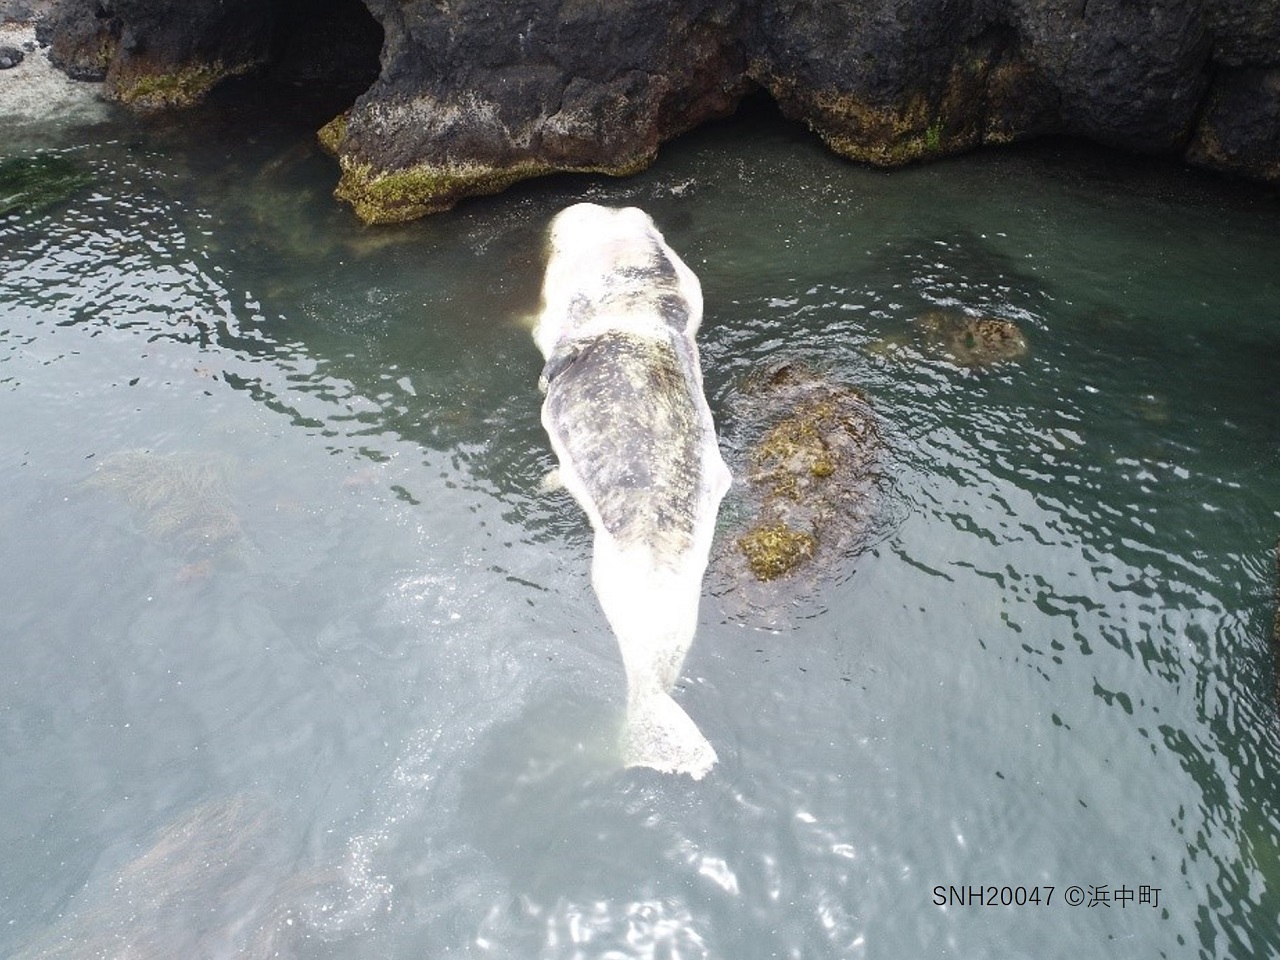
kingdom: Animalia
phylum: Chordata
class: Mammalia
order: Cetacea
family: Physeteridae
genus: Physeter
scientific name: Physeter macrocephalus
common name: Sperm whale
